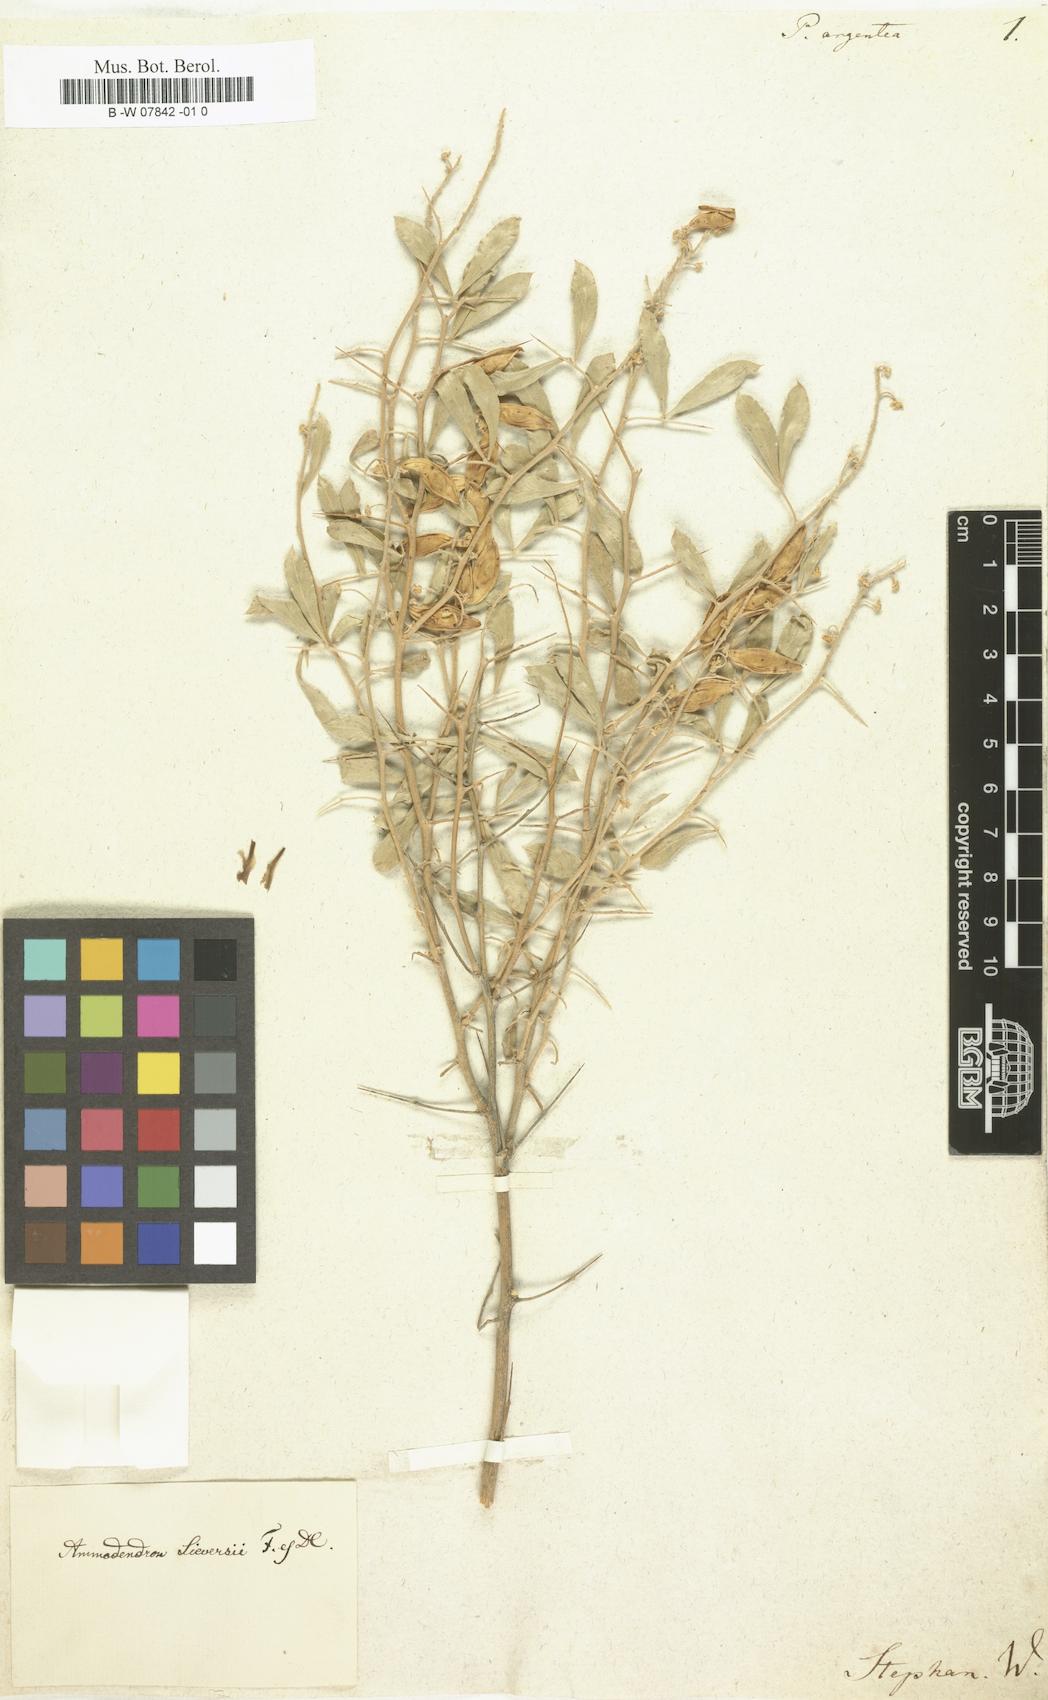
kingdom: Plantae
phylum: Tracheophyta
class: Magnoliopsida
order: Fabales
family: Fabaceae
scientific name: Fabaceae
